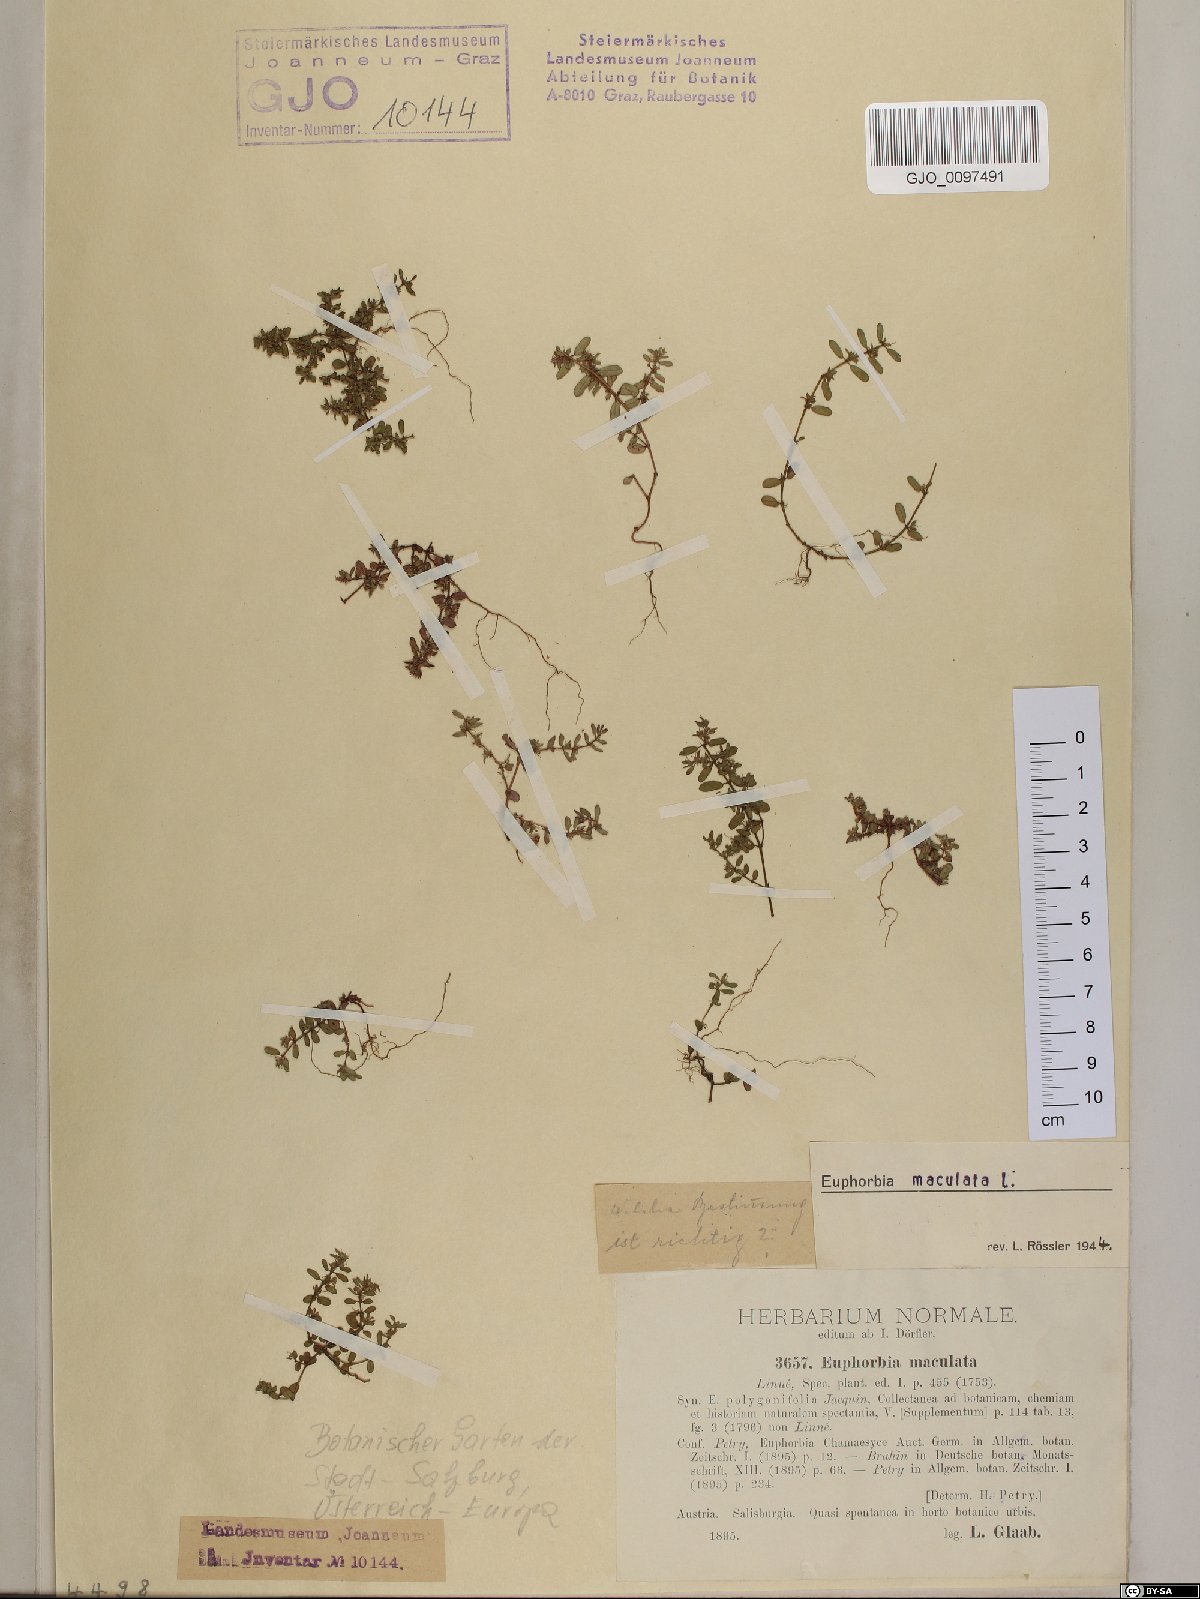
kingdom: Plantae
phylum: Tracheophyta
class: Magnoliopsida
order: Malpighiales
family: Euphorbiaceae
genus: Euphorbia
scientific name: Euphorbia maculata
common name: Spotted spurge
